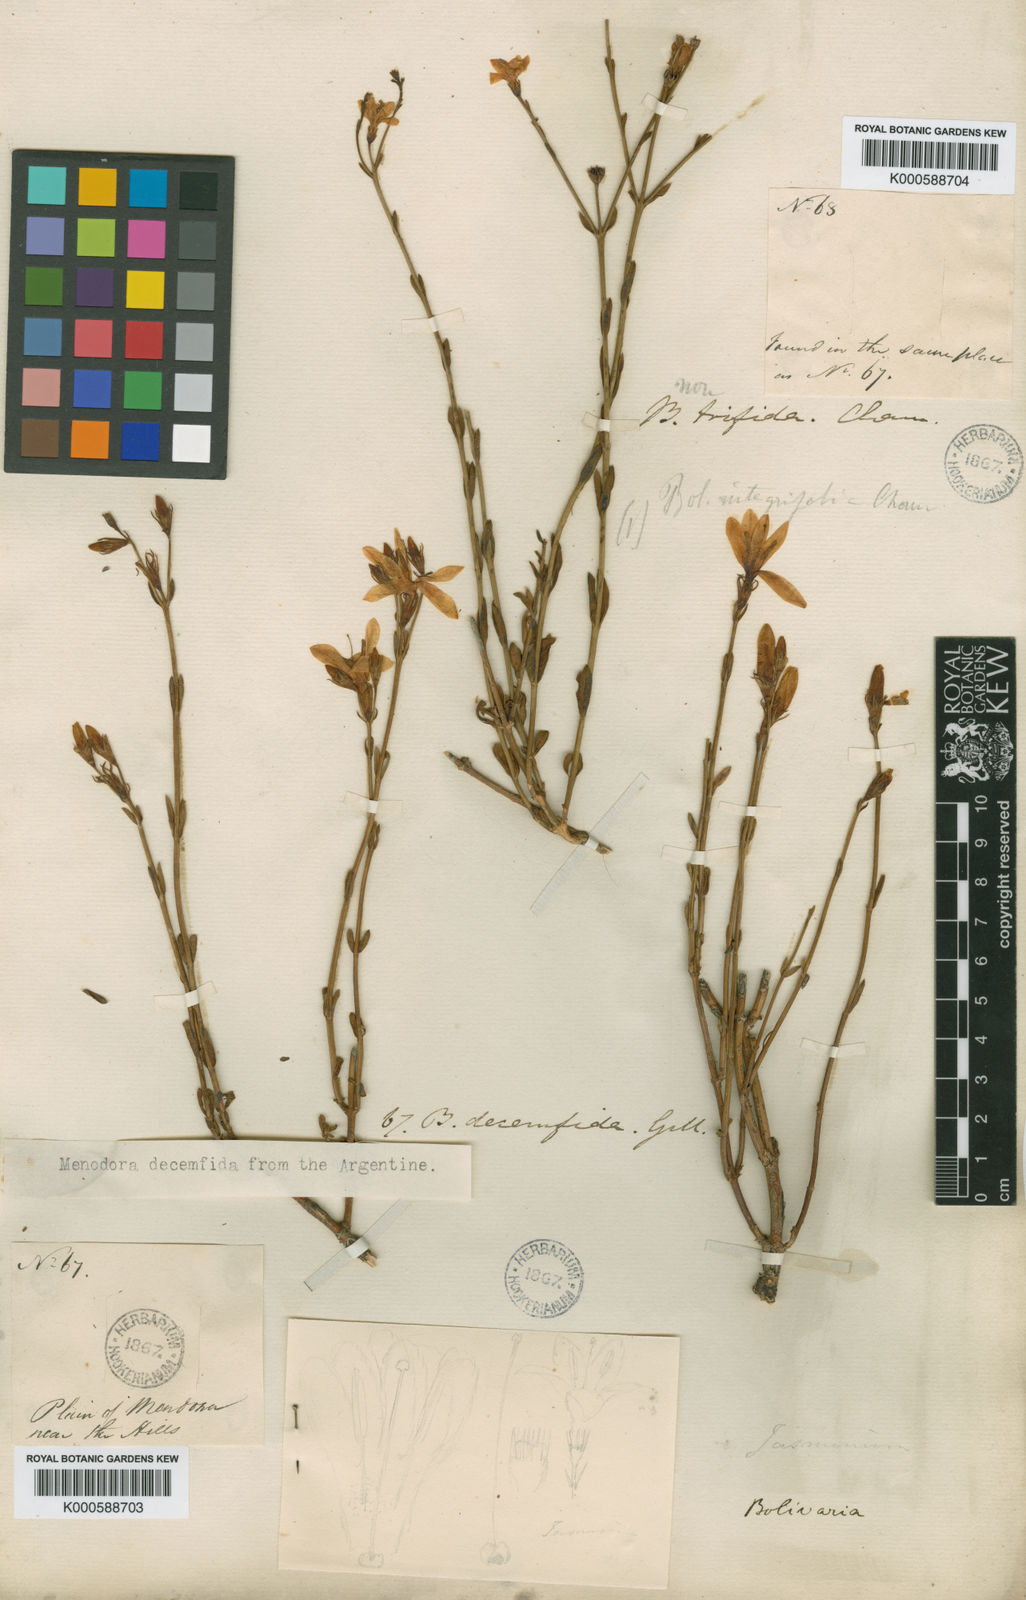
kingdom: Plantae
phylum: Tracheophyta
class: Magnoliopsida
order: Lamiales
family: Oleaceae
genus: Menodora
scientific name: Menodora decemfida
